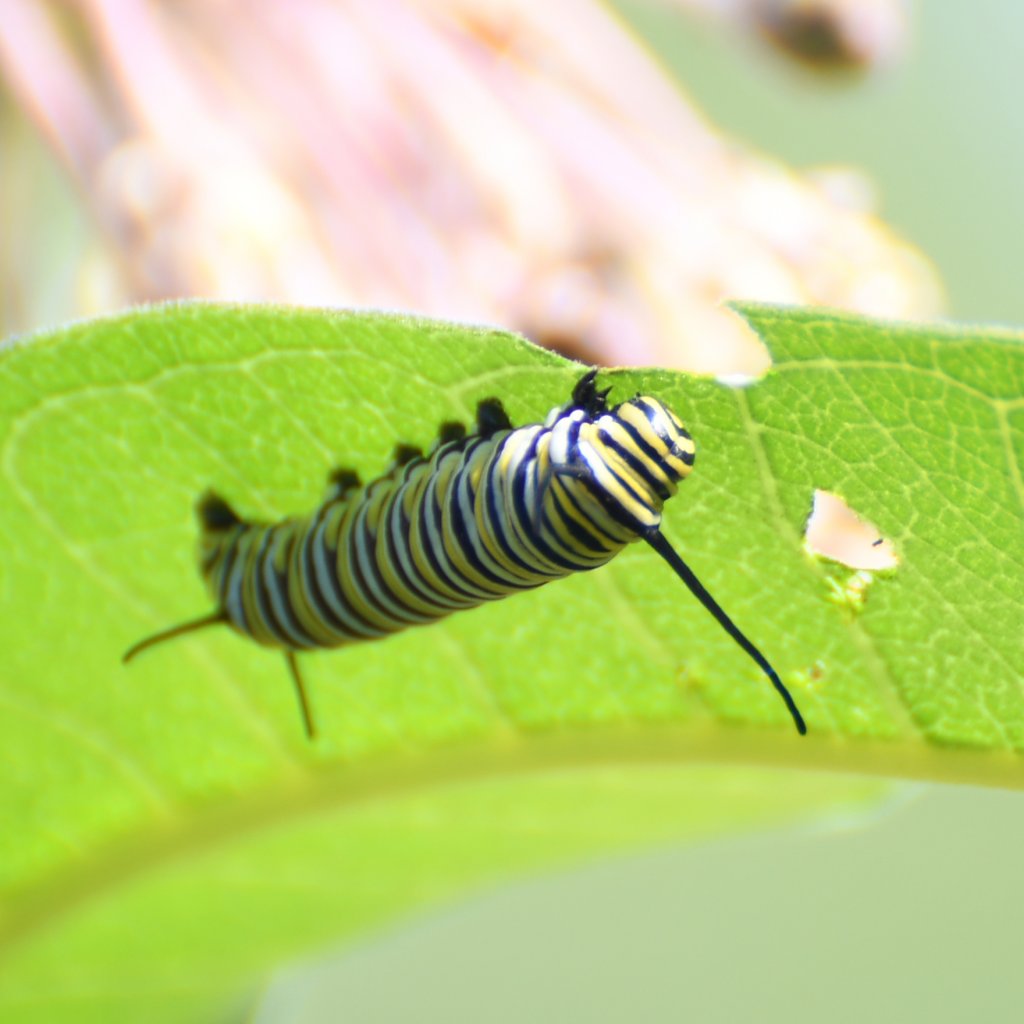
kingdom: Animalia
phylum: Arthropoda
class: Insecta
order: Lepidoptera
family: Nymphalidae
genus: Danaus
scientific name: Danaus plexippus
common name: Monarch
